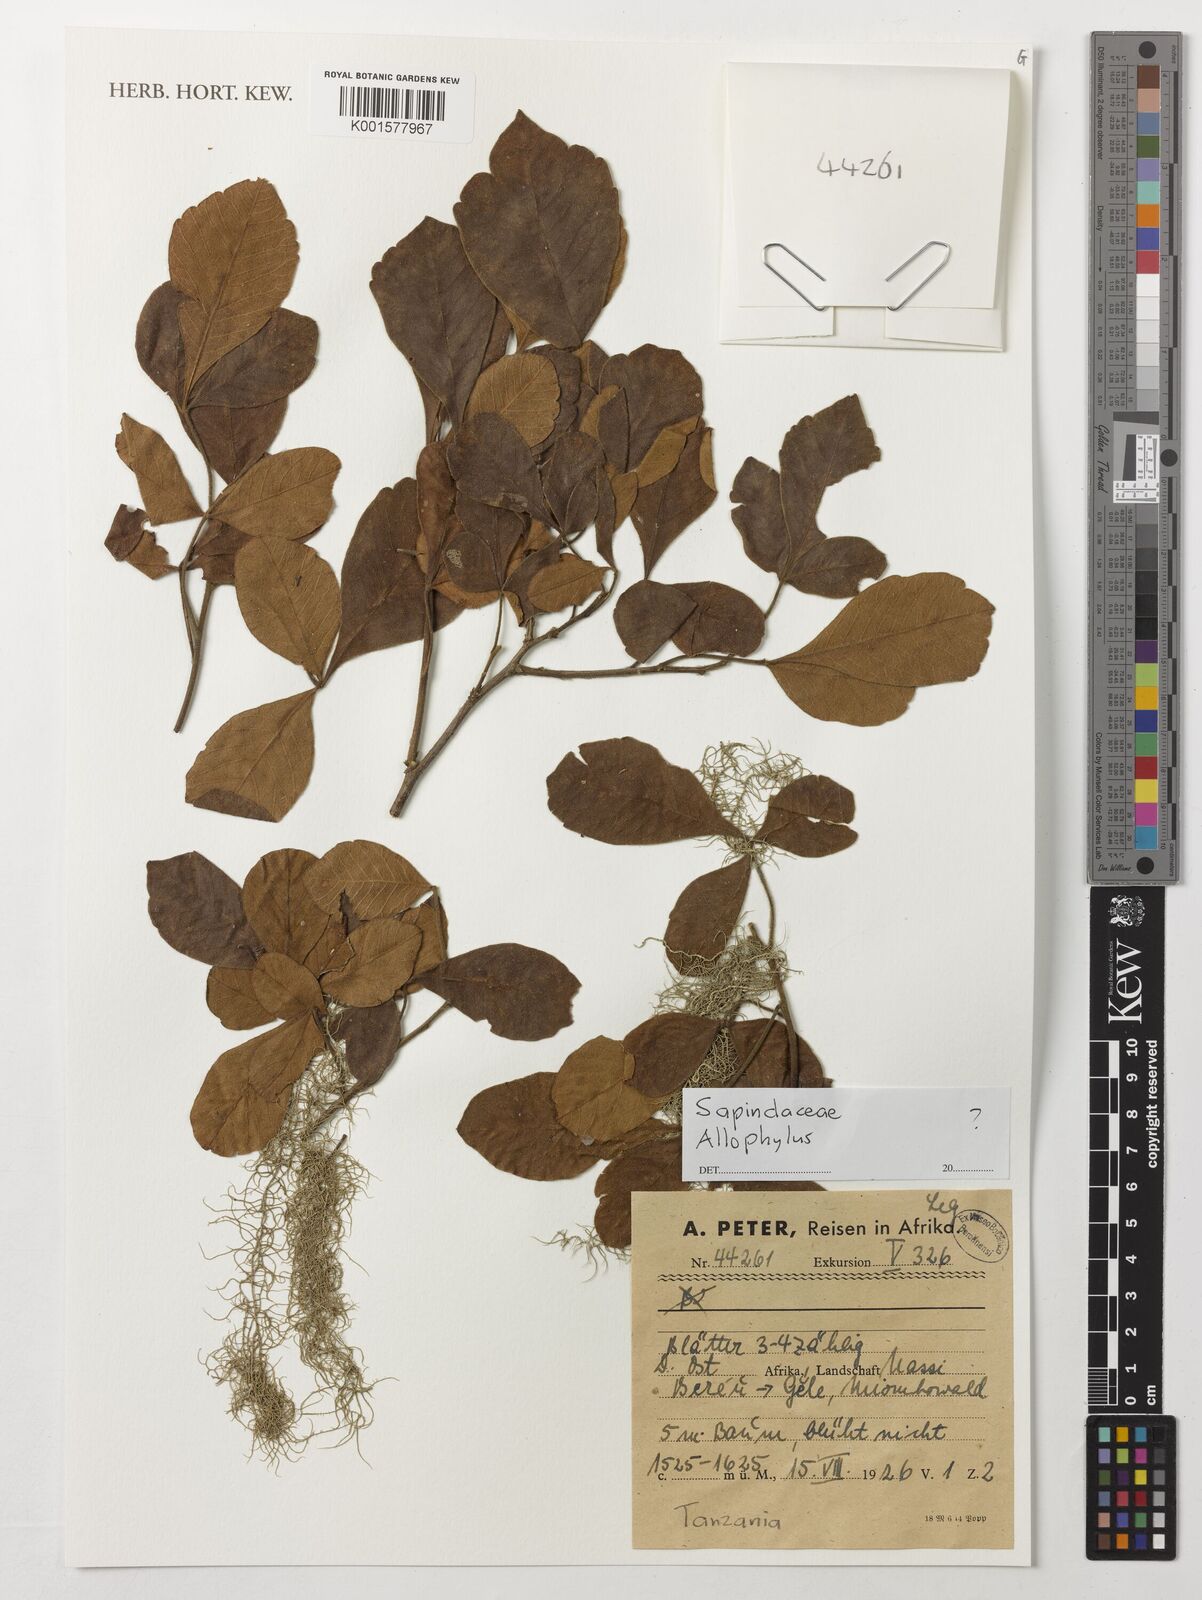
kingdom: Plantae
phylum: Tracheophyta
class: Magnoliopsida
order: Sapindales
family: Sapindaceae
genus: Allophylus
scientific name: Allophylus
